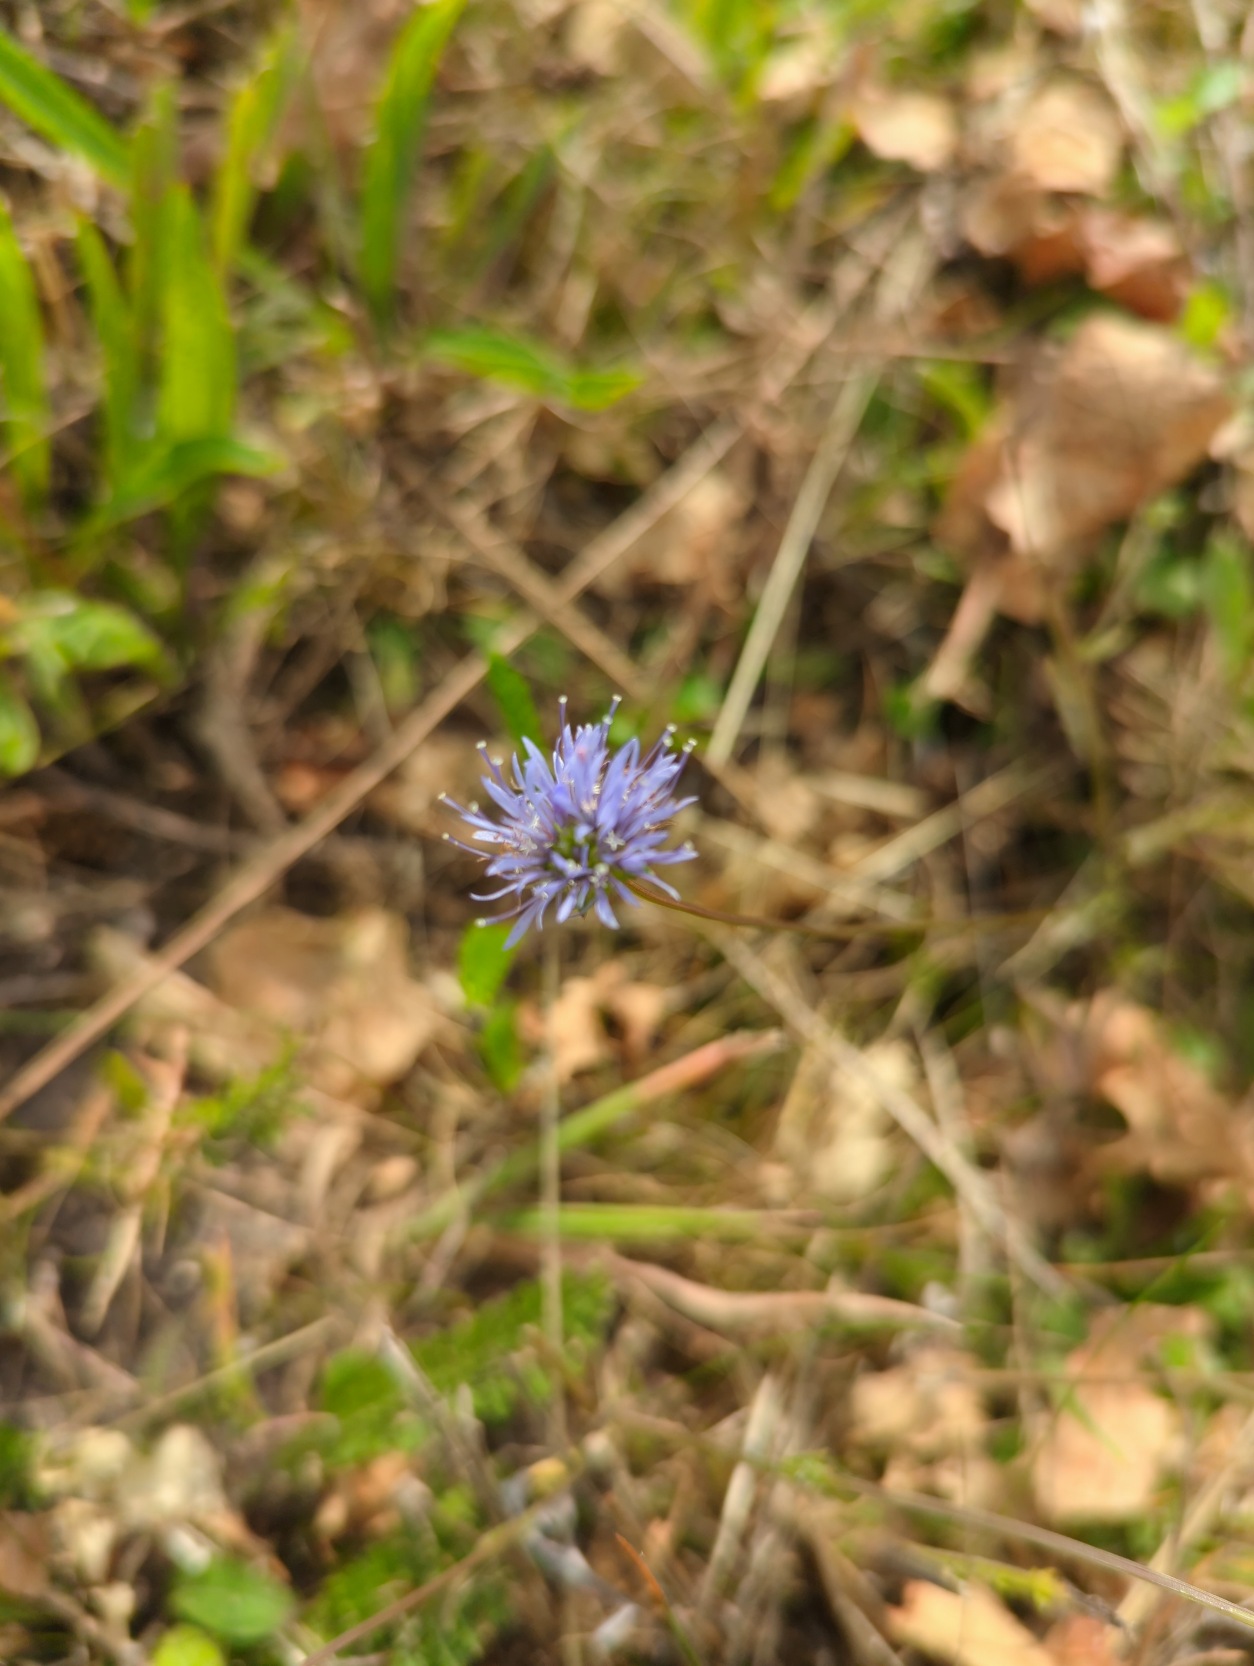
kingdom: Plantae
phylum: Tracheophyta
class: Magnoliopsida
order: Asterales
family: Campanulaceae
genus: Jasione
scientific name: Jasione montana
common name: Blåmunke
